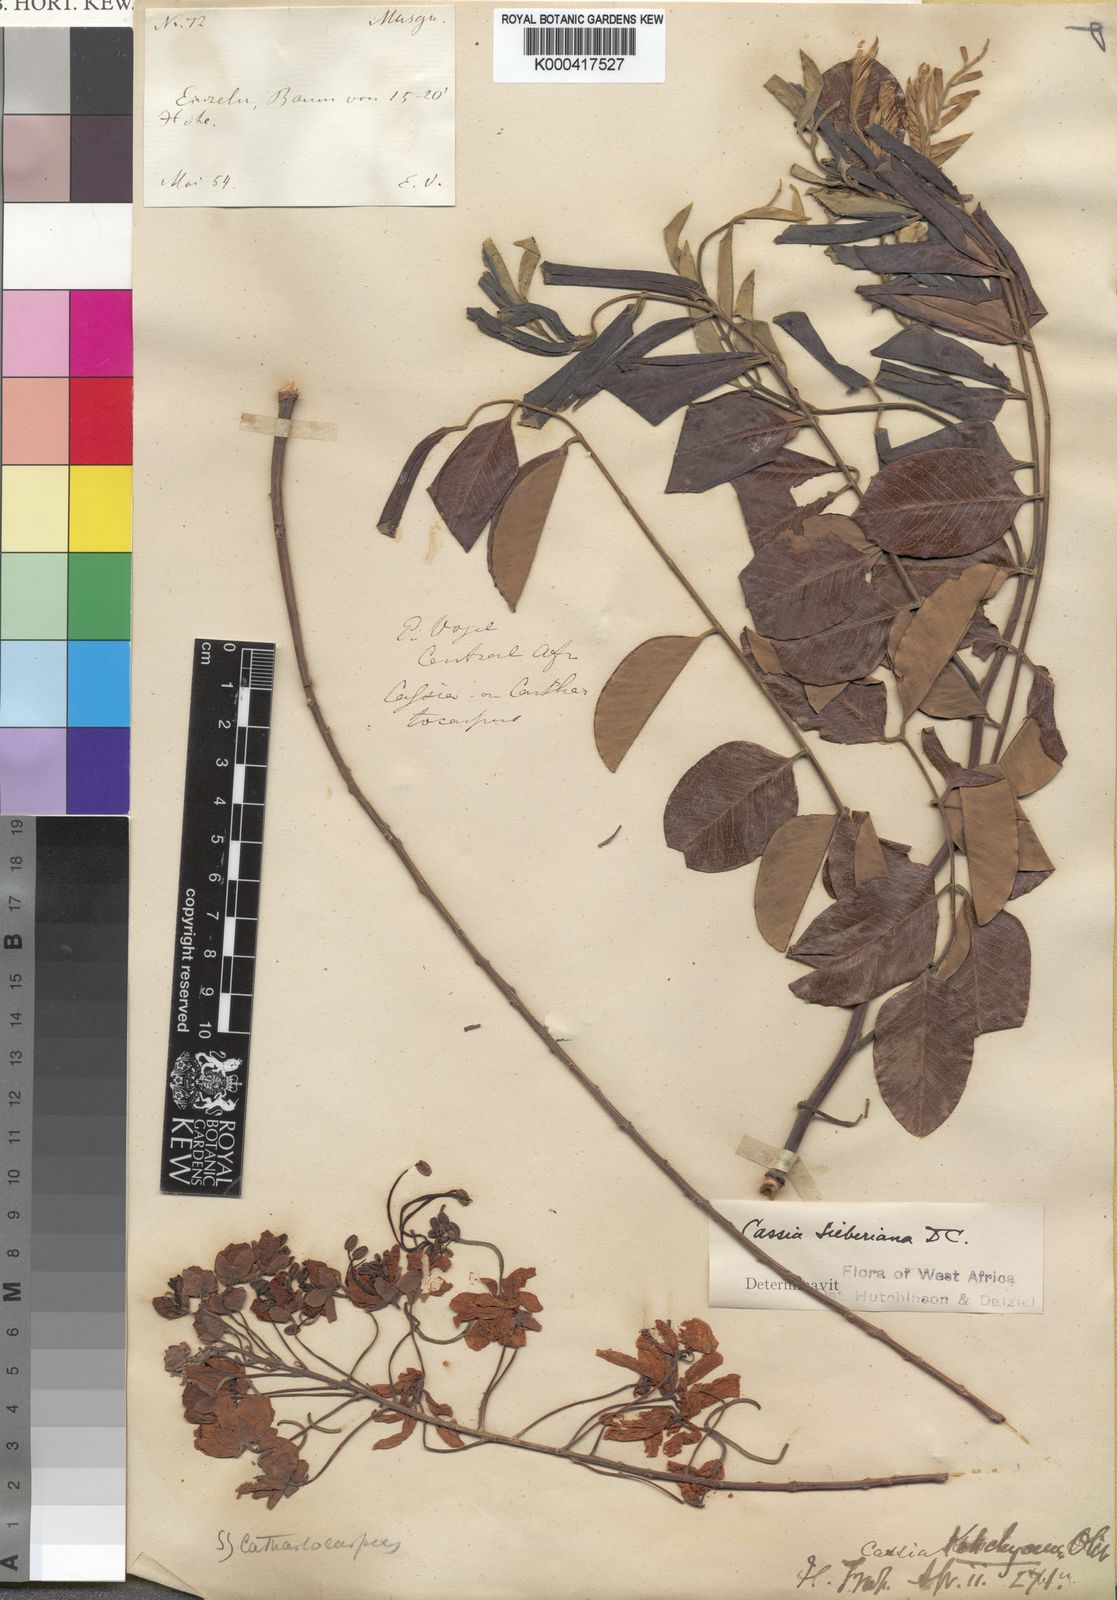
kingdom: Plantae
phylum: Tracheophyta
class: Magnoliopsida
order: Fabales
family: Fabaceae
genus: Cassia
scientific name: Cassia sieberiana
